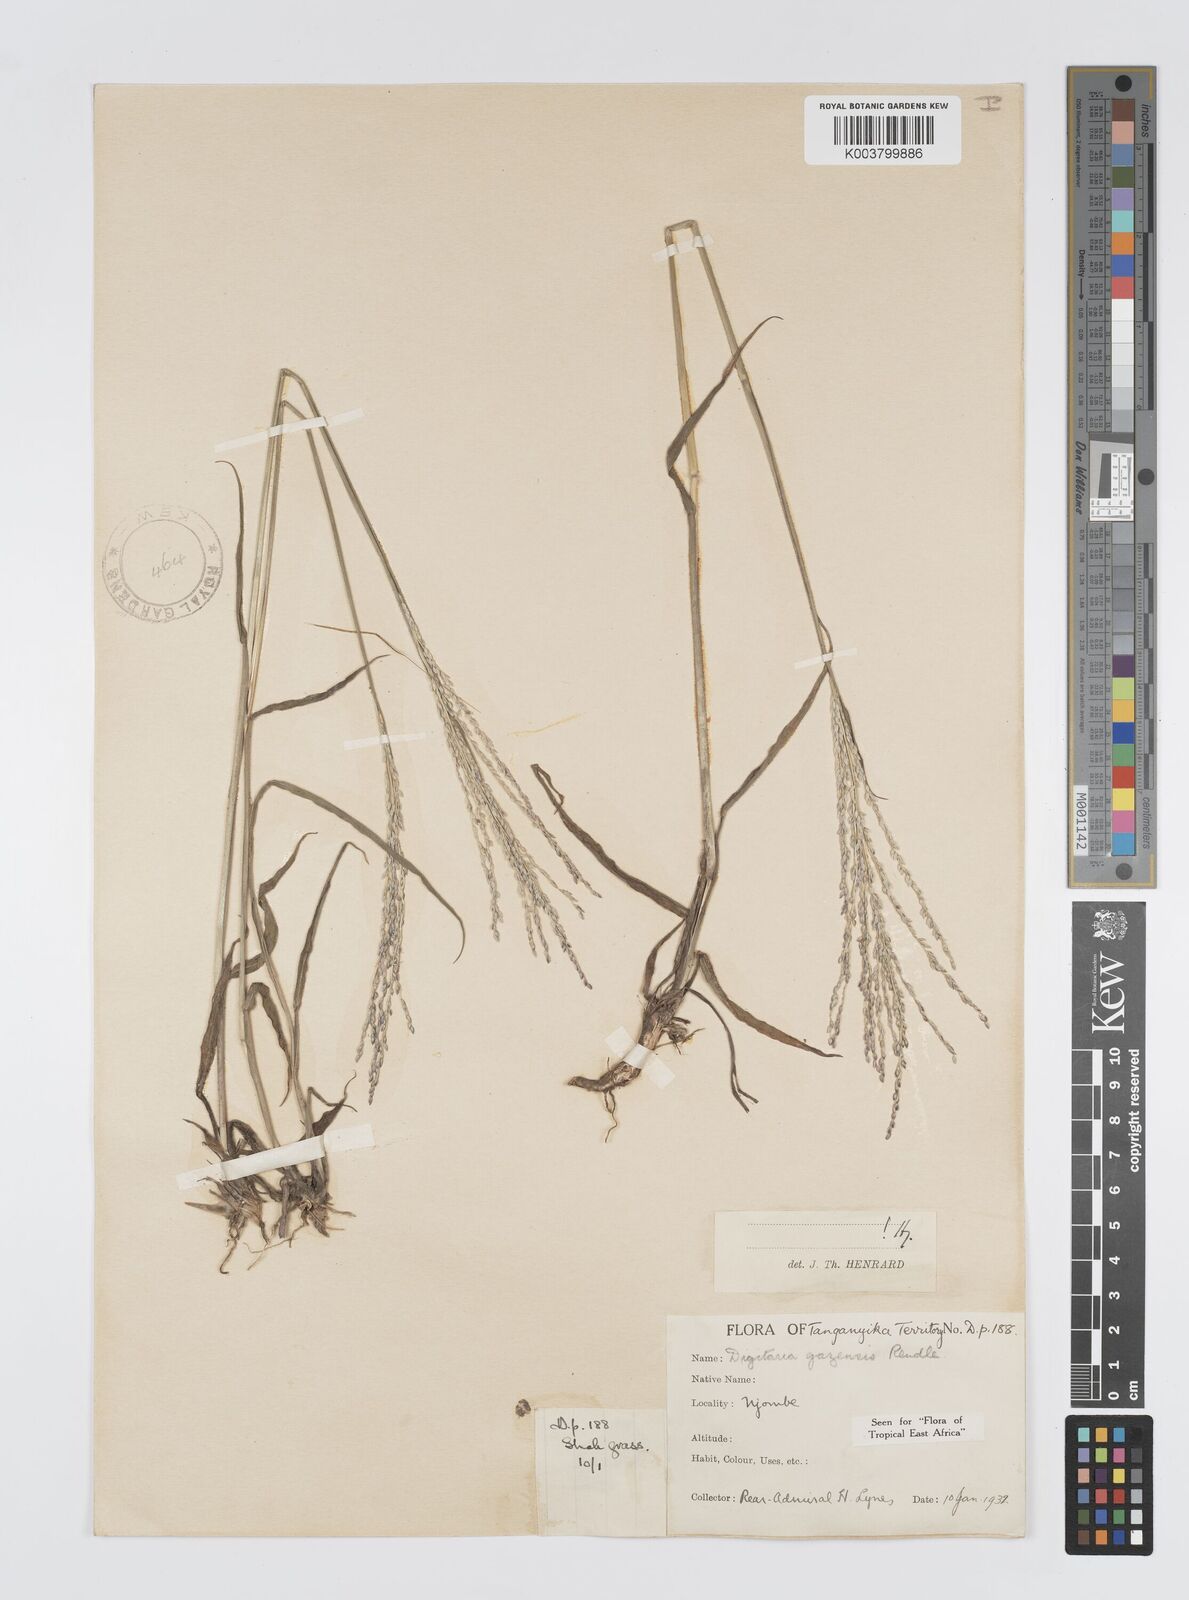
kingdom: Plantae
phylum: Tracheophyta
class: Liliopsida
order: Poales
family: Poaceae
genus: Digitaria
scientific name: Digitaria gazensis
